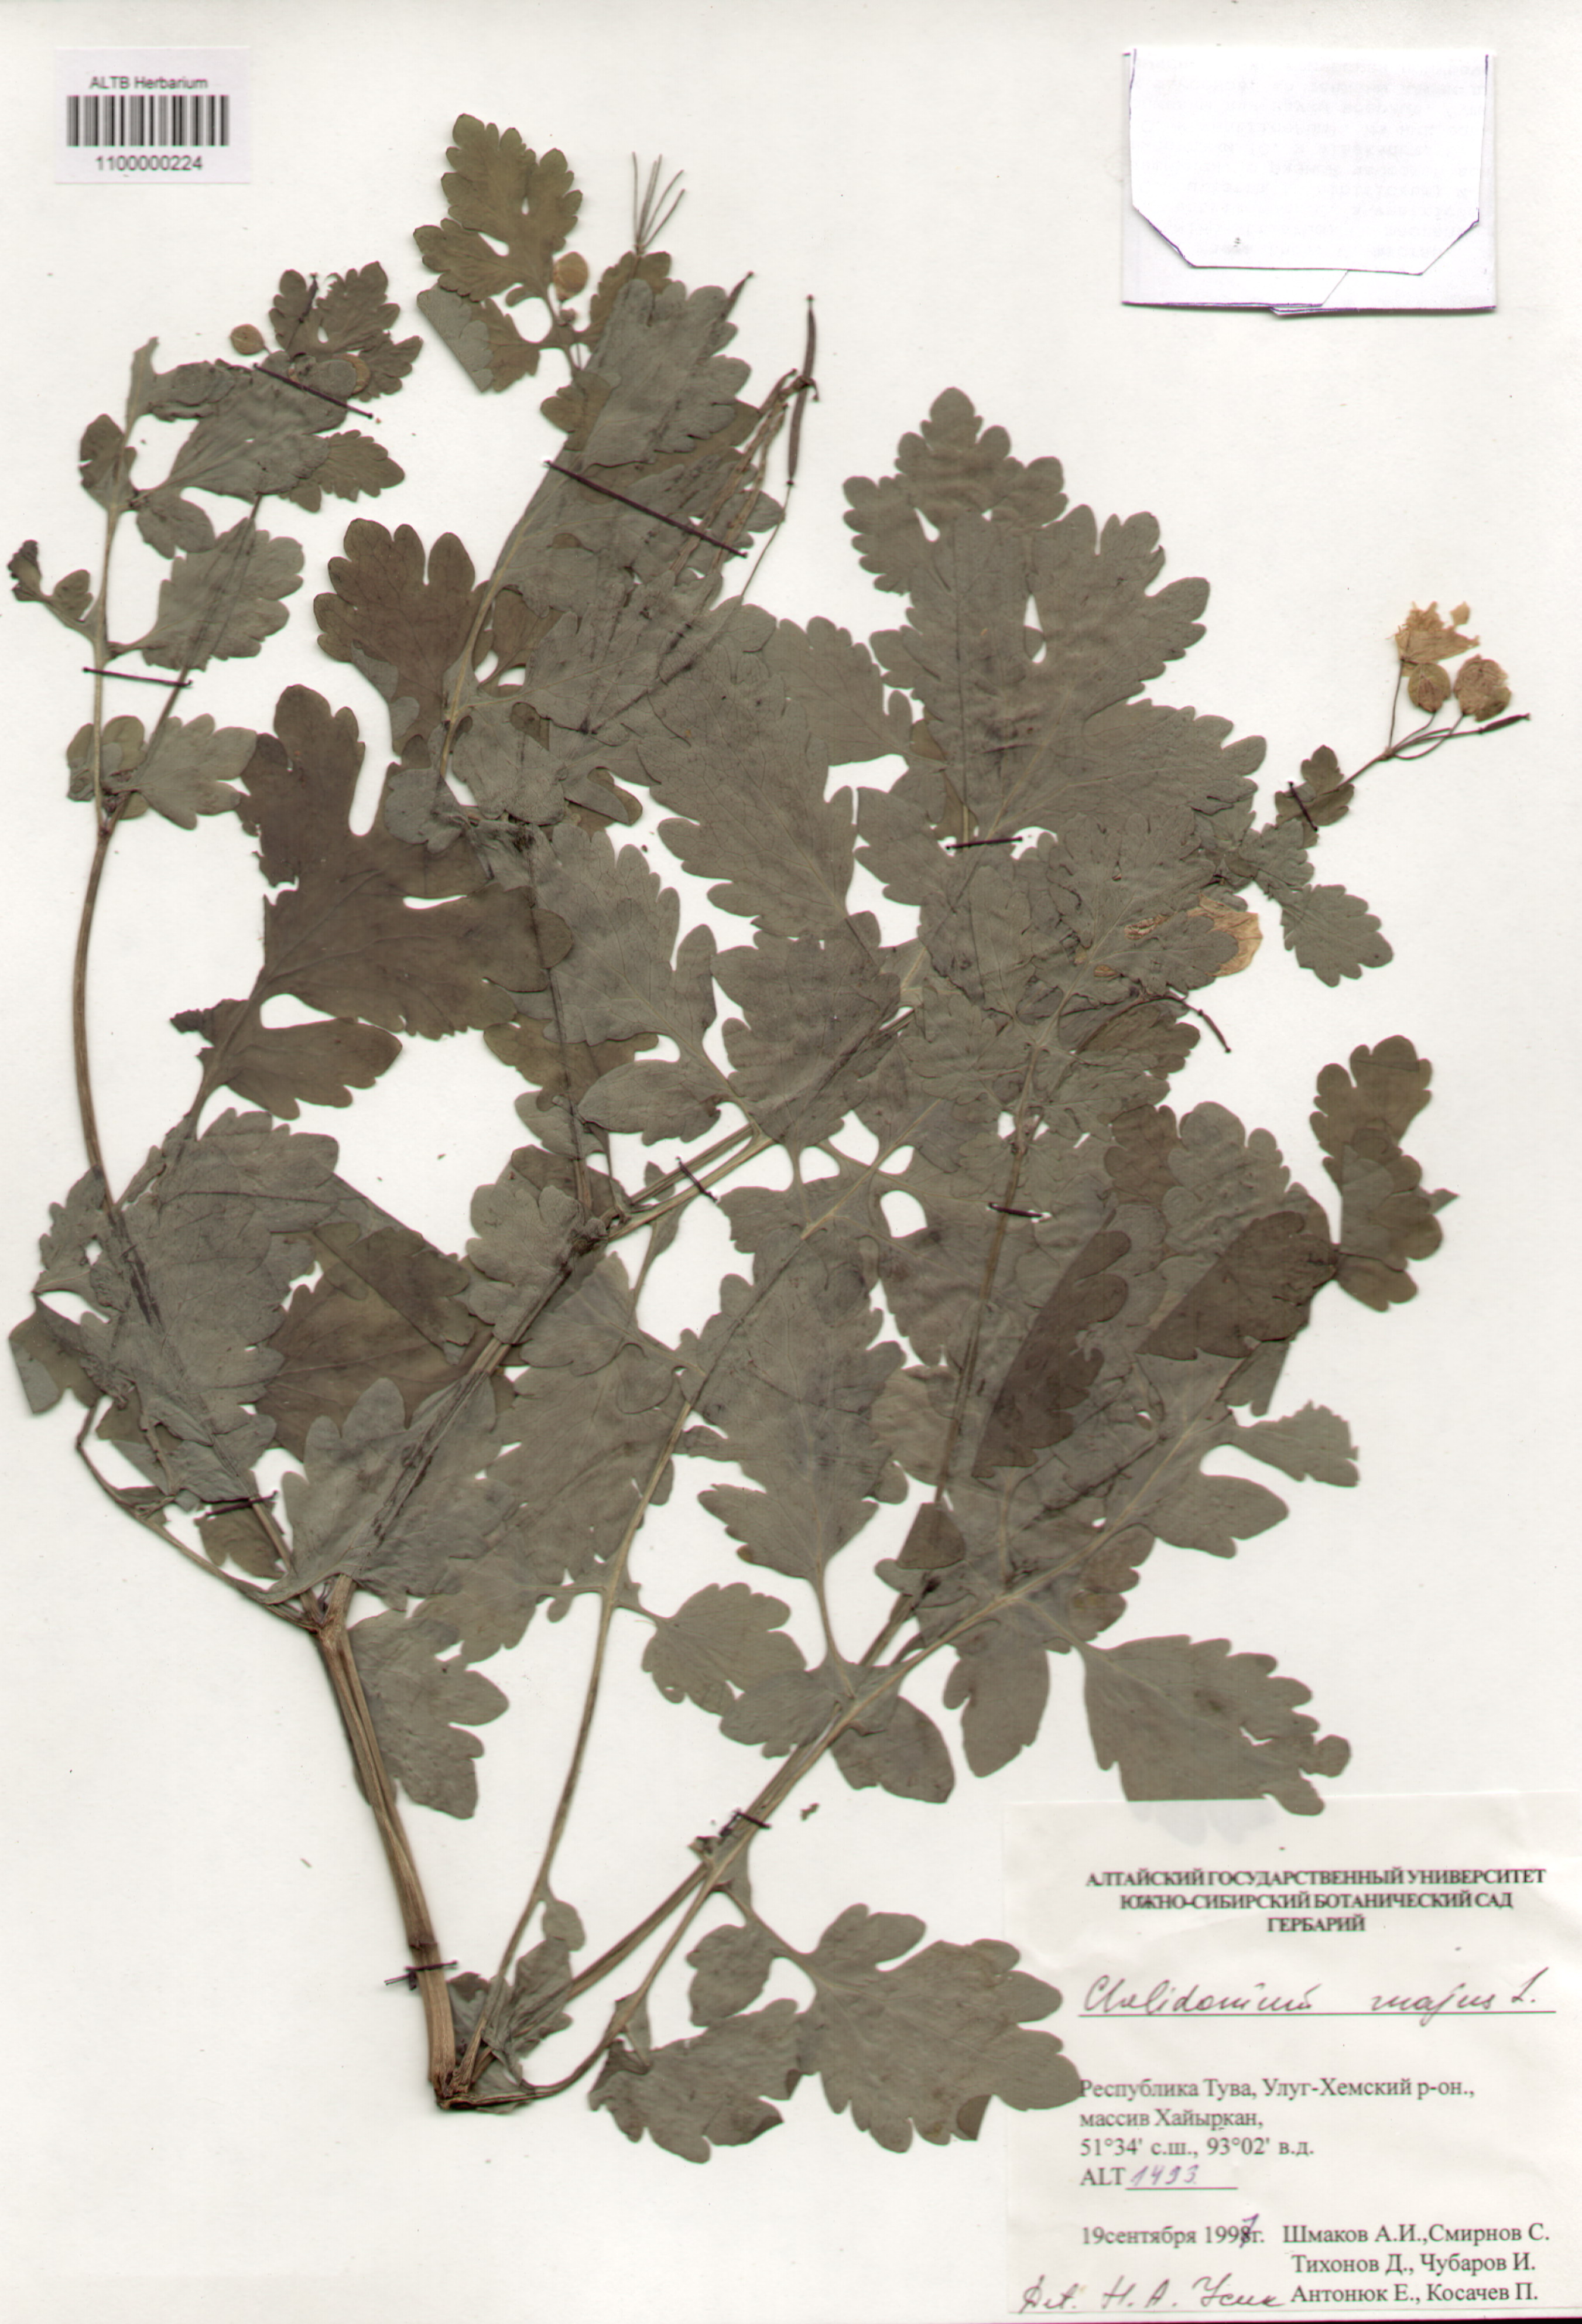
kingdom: Plantae
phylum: Tracheophyta
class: Magnoliopsida
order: Ranunculales
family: Papaveraceae
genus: Chelidonium
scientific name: Chelidonium majus
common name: Greater celandine
